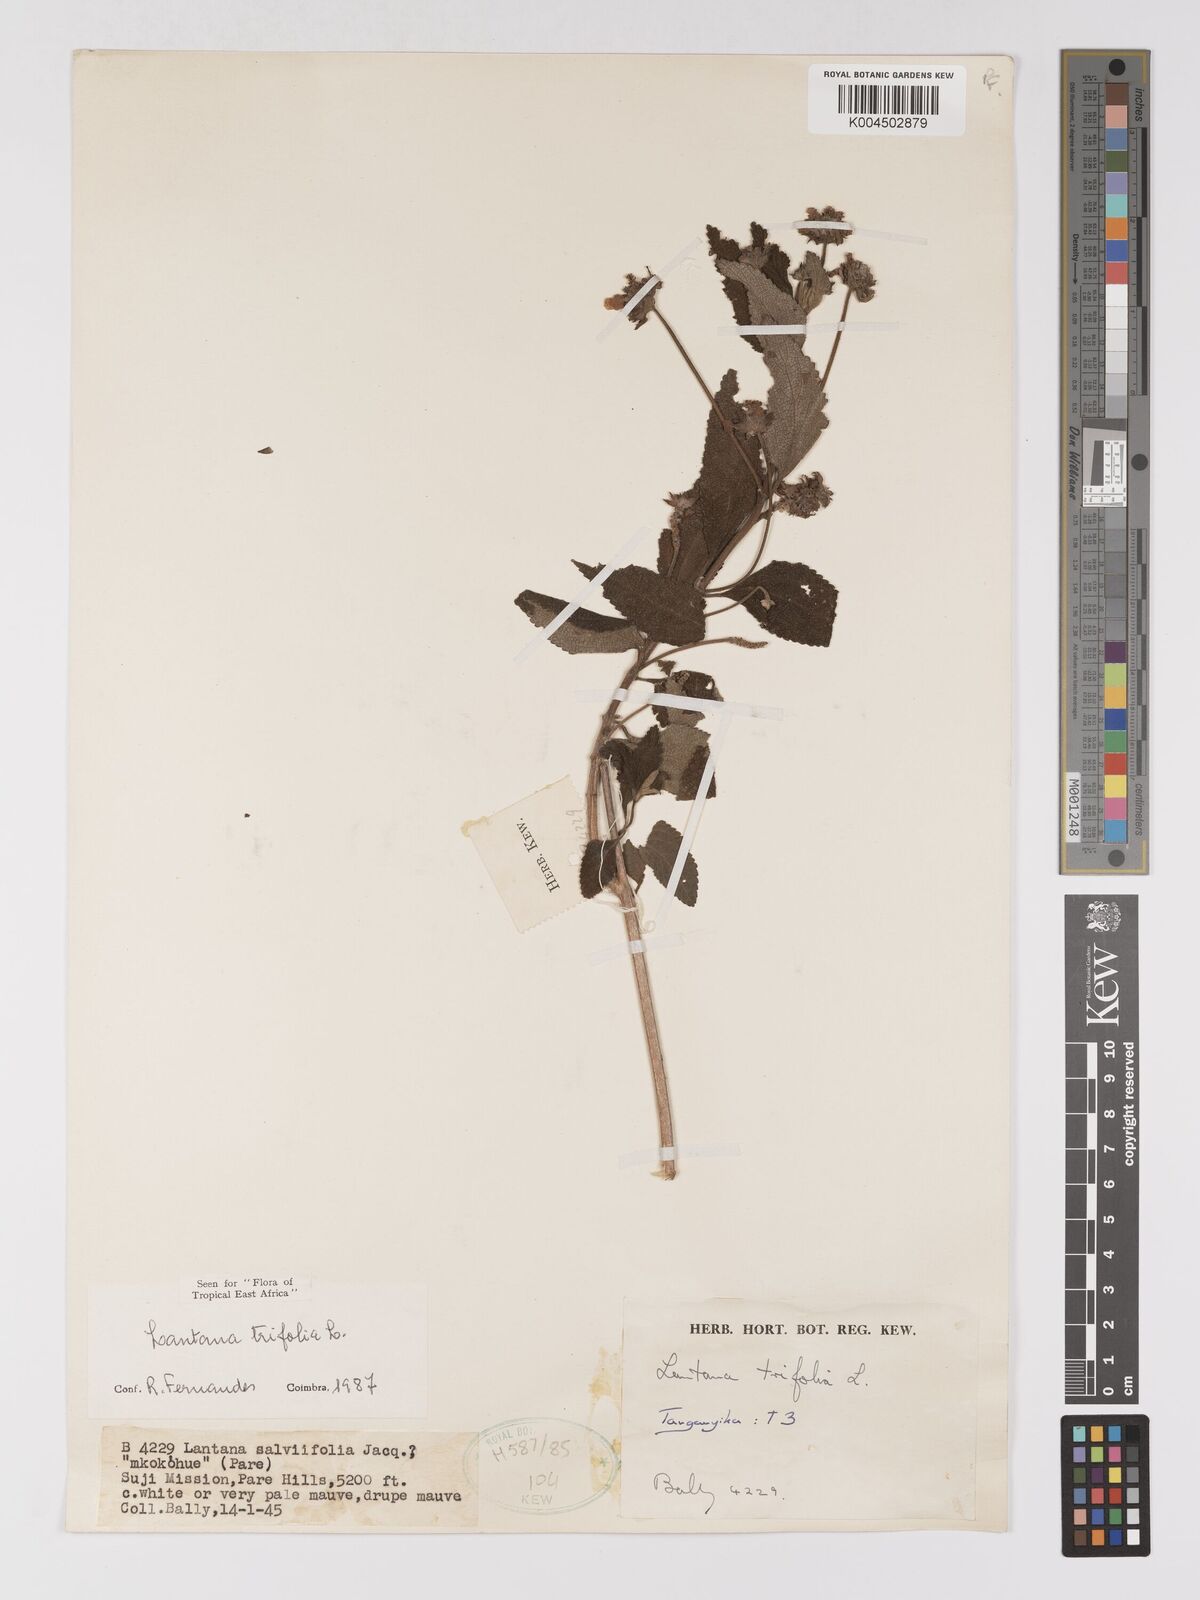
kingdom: Plantae
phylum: Tracheophyta
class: Magnoliopsida
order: Lamiales
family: Verbenaceae
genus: Lantana
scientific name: Lantana trifolia
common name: Sweet-sage
